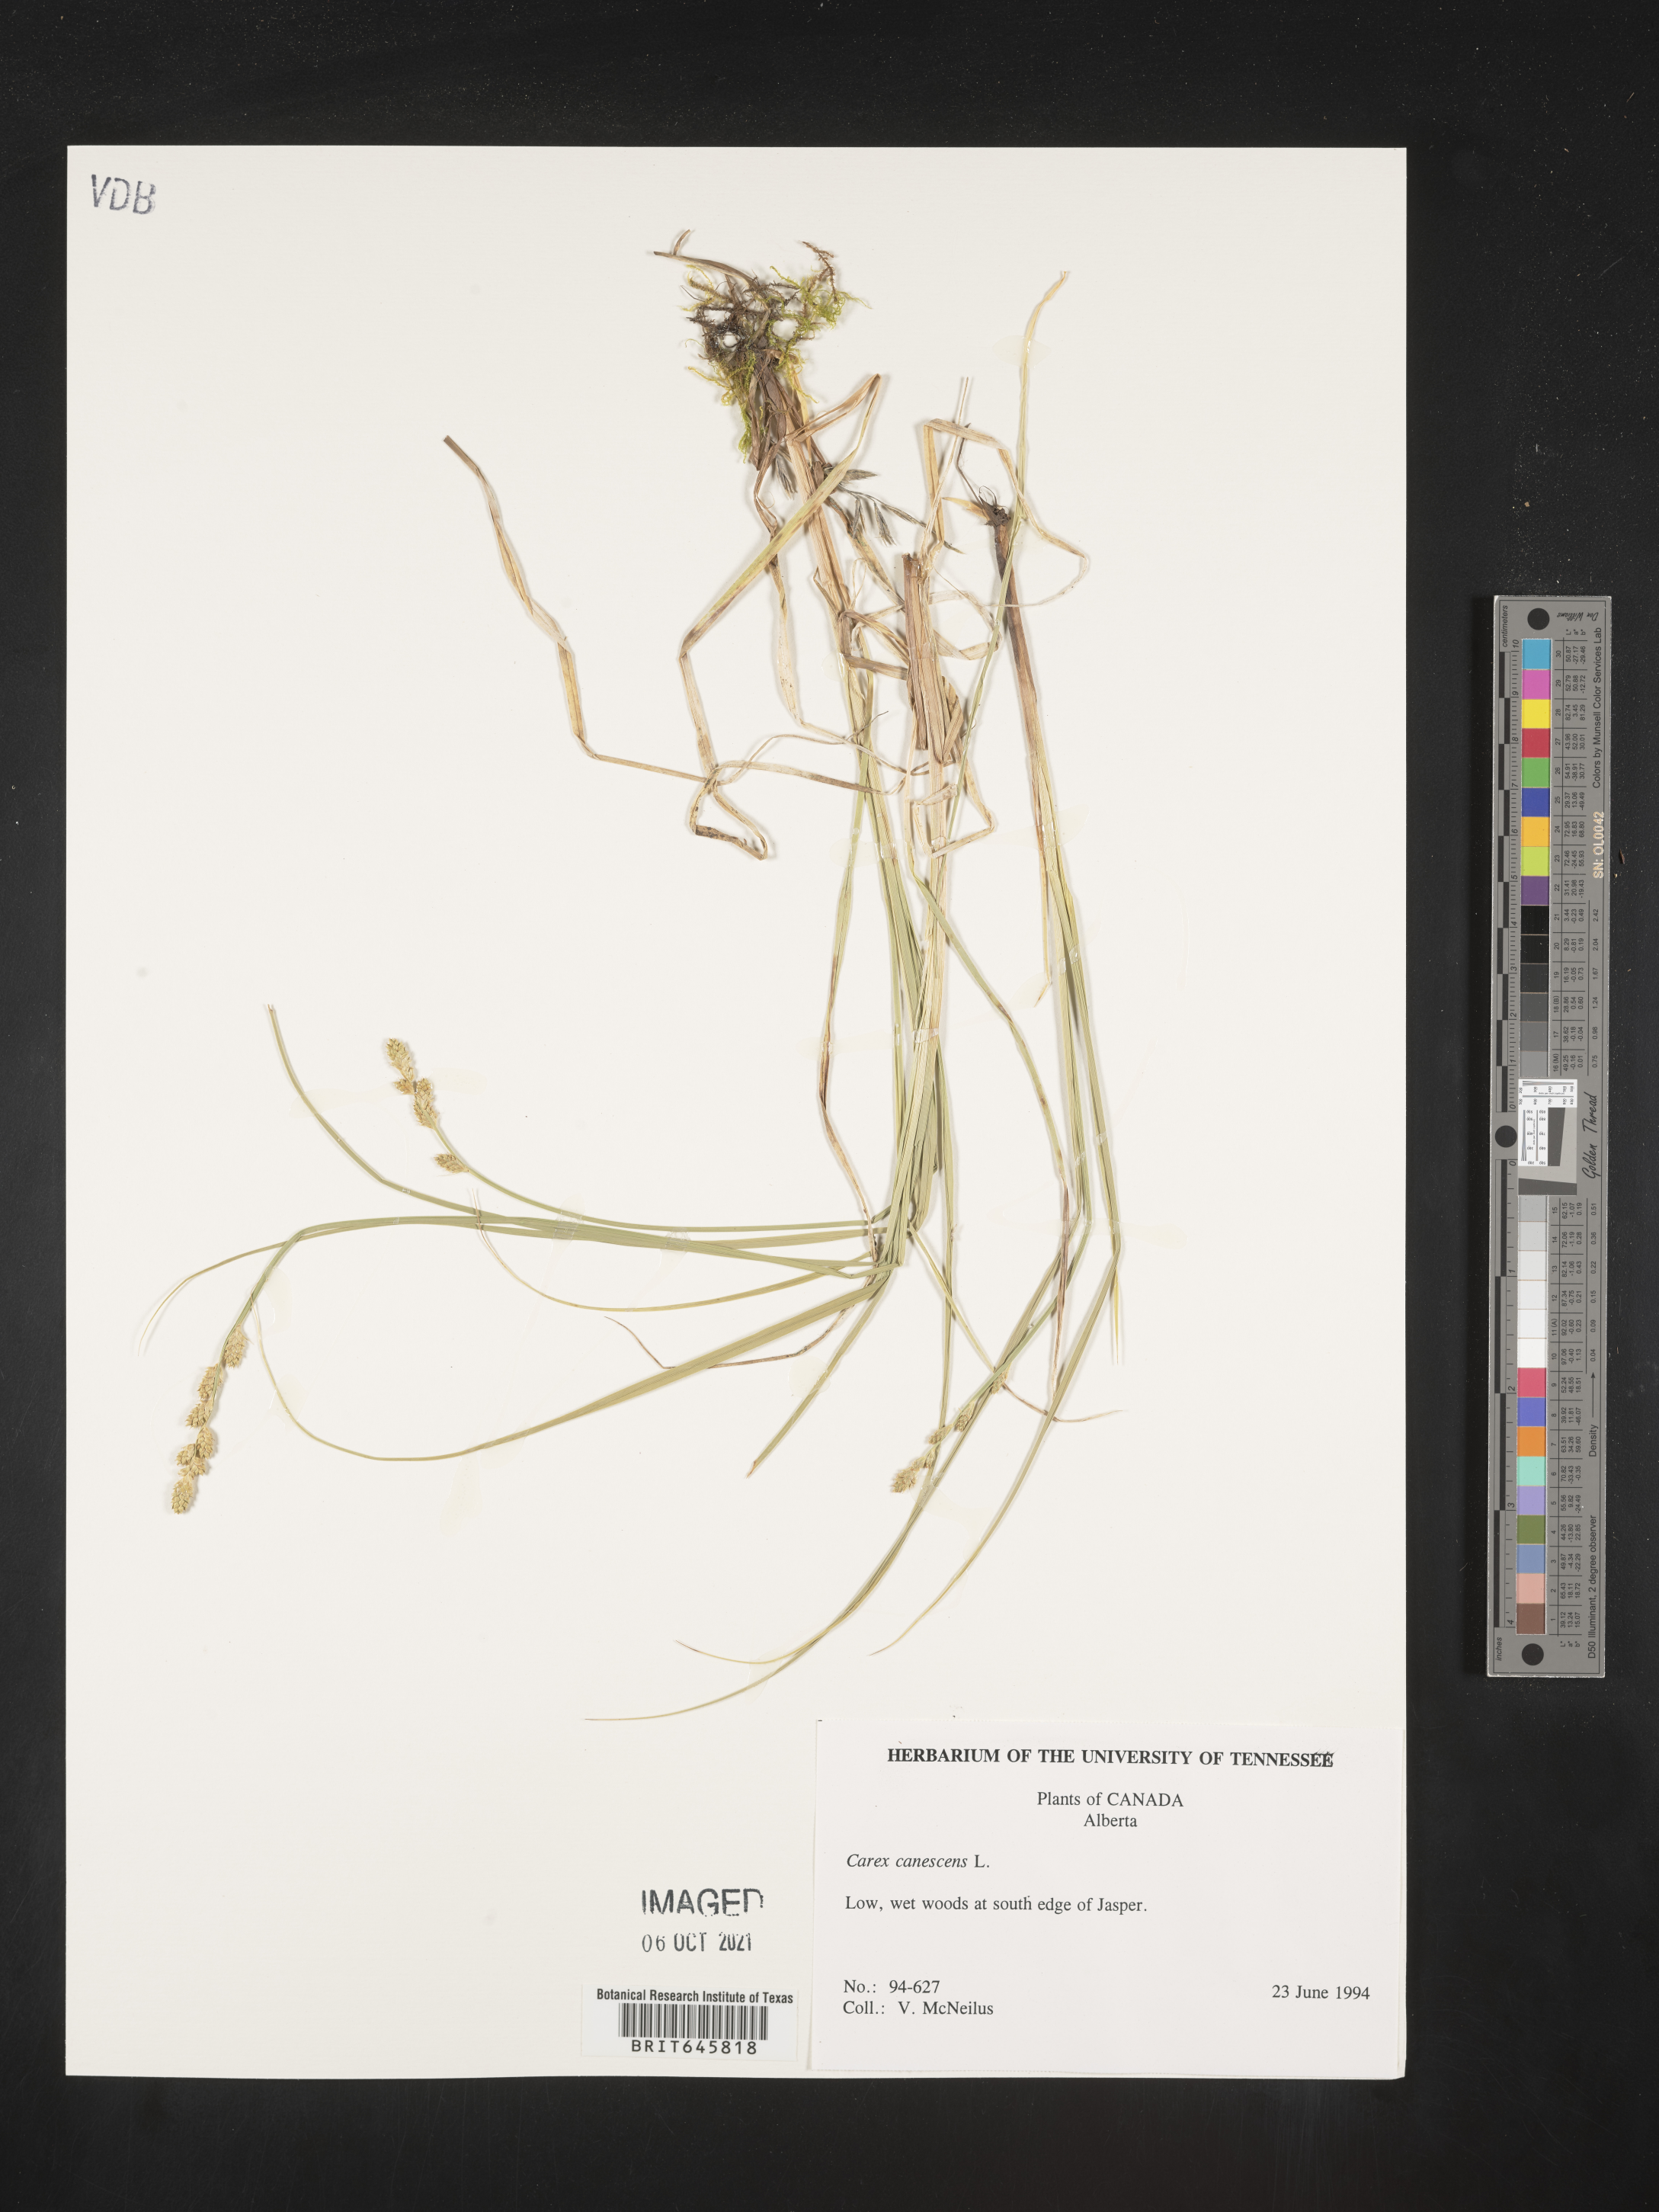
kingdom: Plantae
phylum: Tracheophyta
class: Liliopsida
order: Poales
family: Cyperaceae
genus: Carex
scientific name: Carex canescens
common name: White sedge
